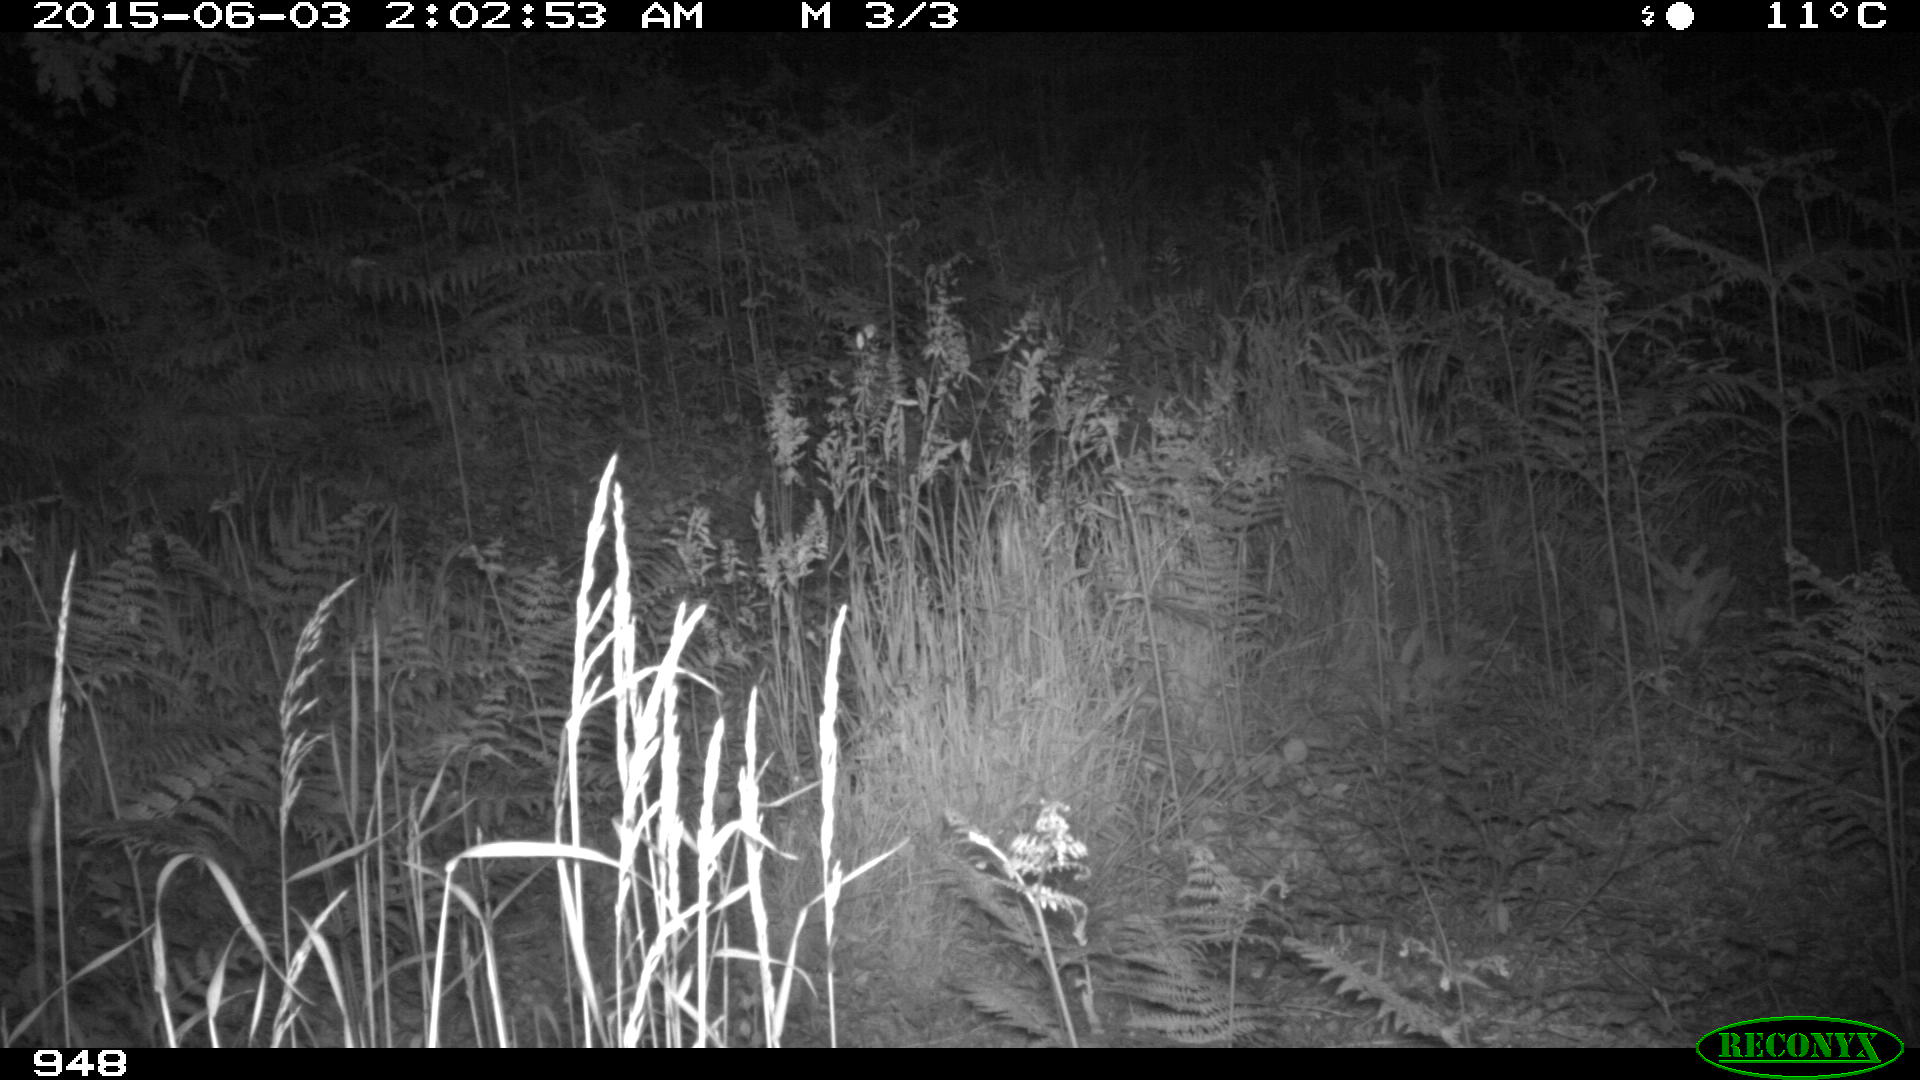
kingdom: Animalia
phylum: Chordata
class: Mammalia
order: Artiodactyla
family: Suidae
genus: Sus
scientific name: Sus scrofa
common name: Wild boar
